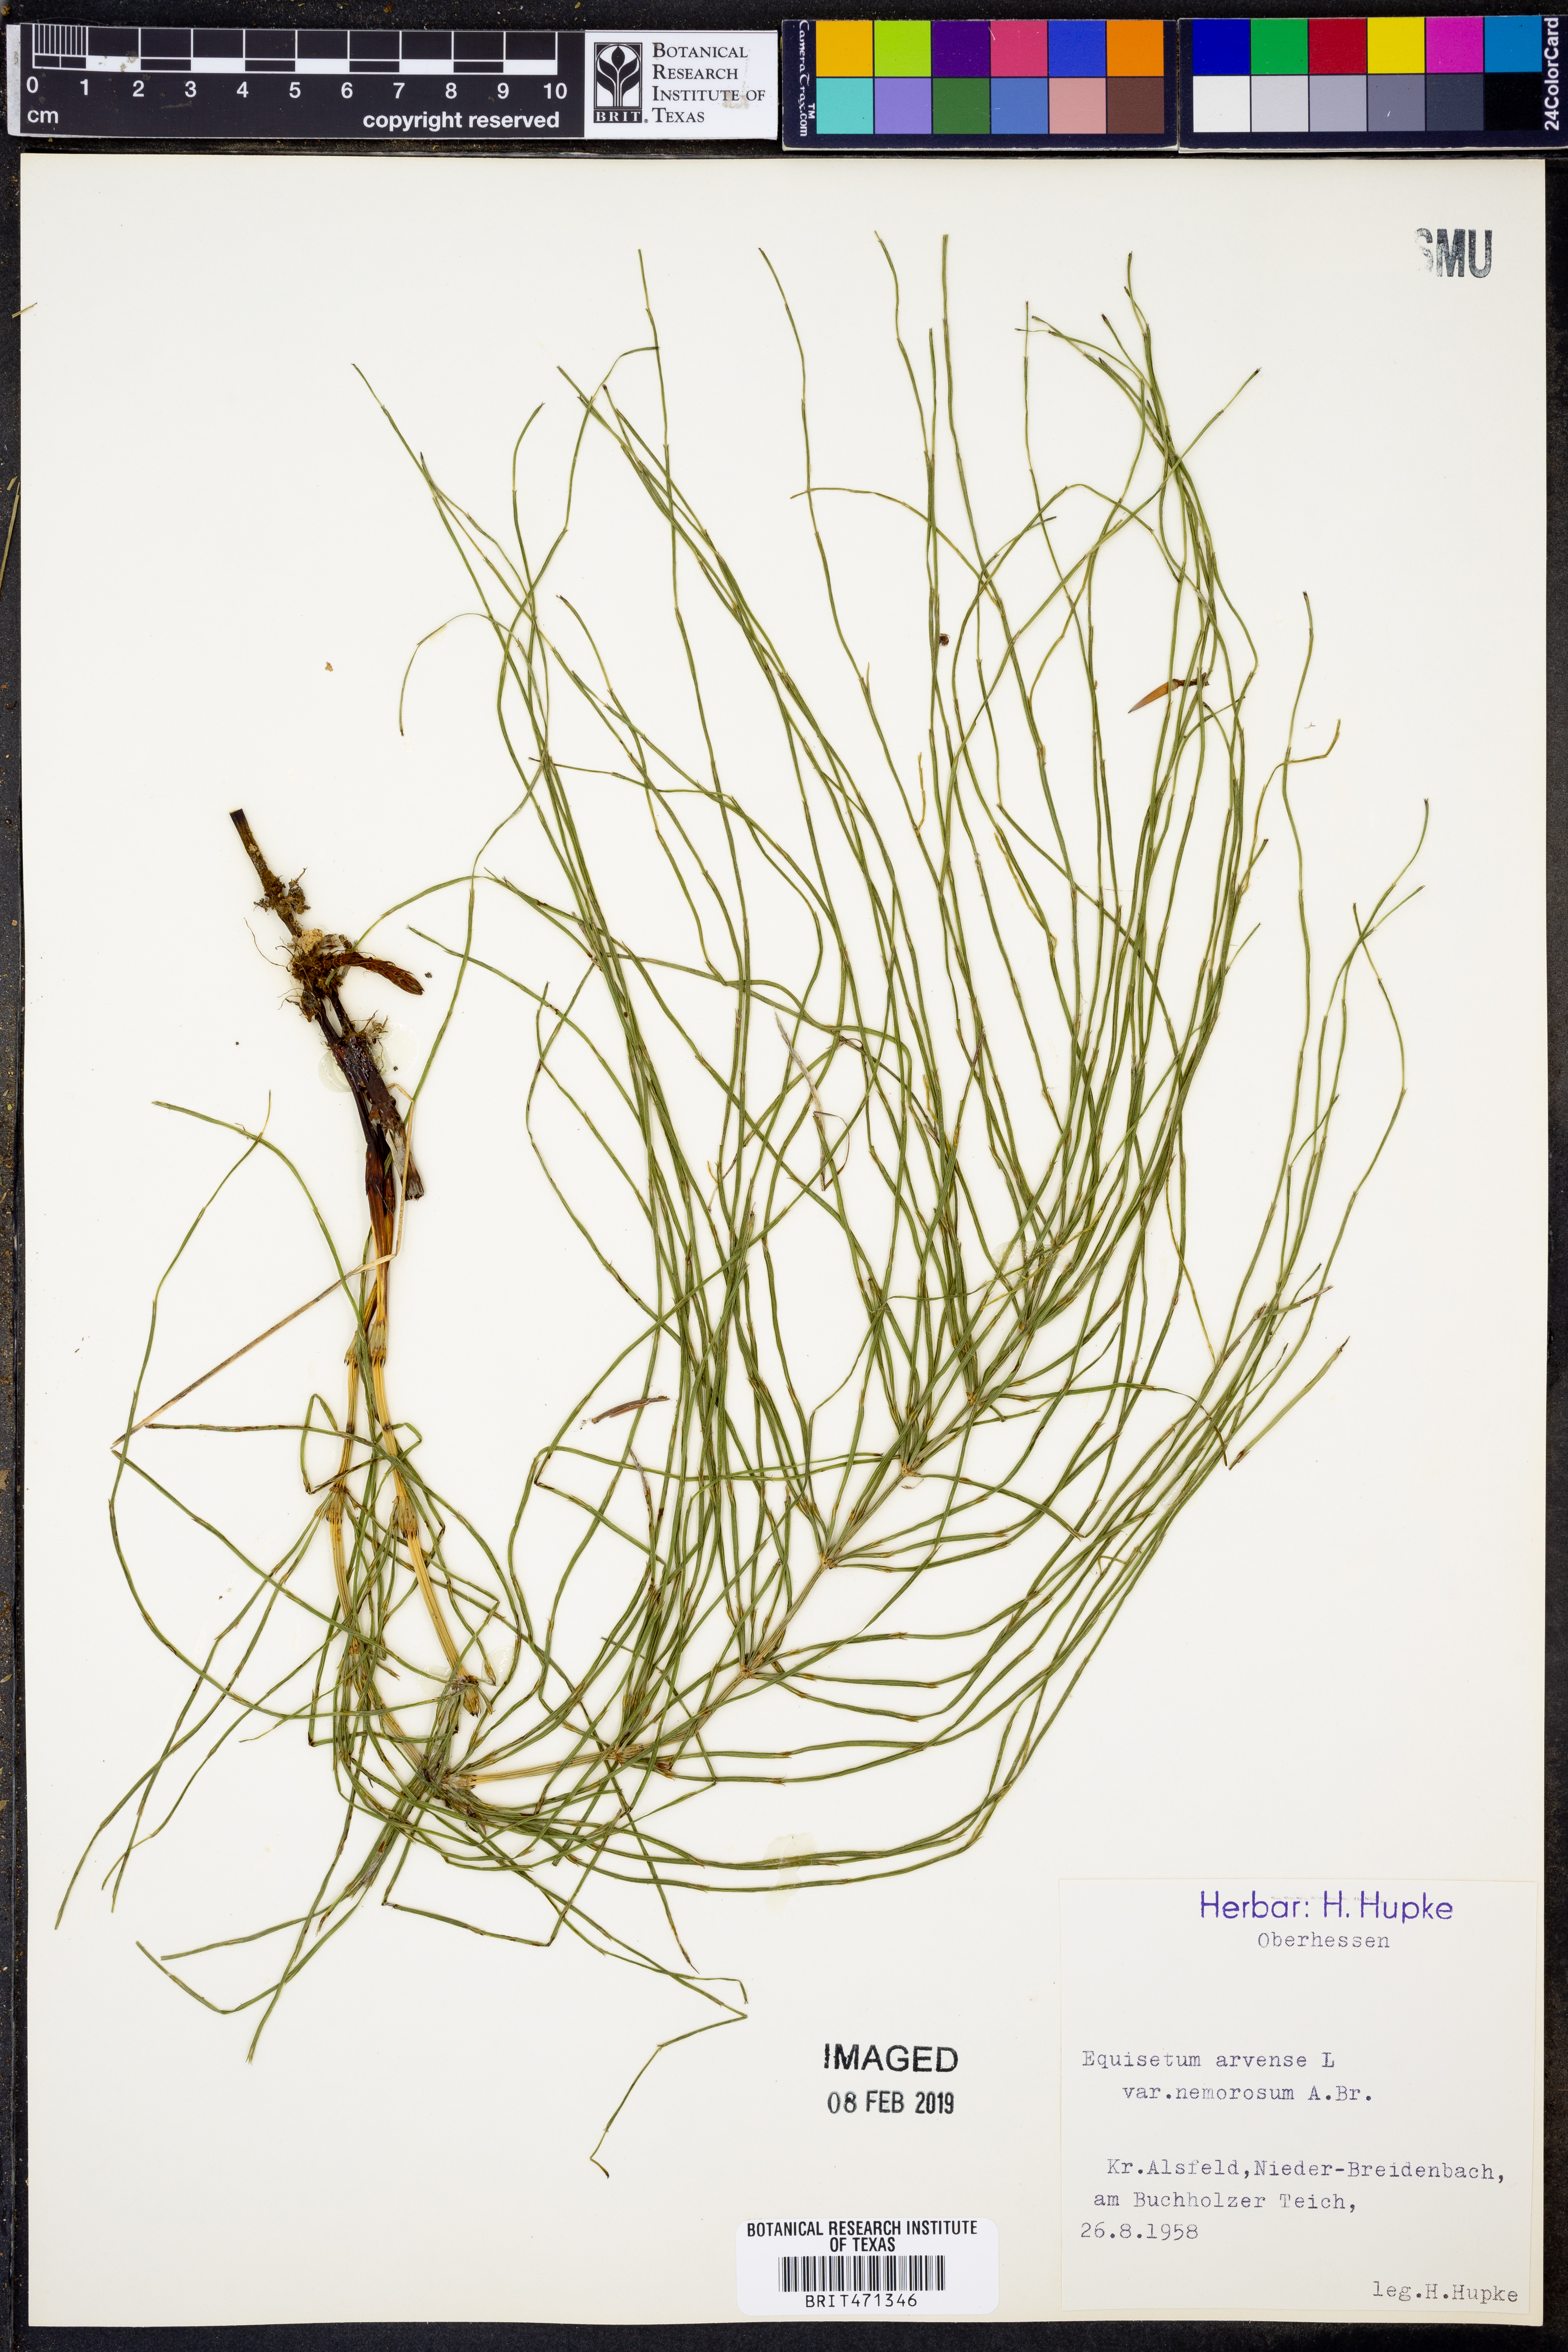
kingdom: Plantae
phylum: Tracheophyta
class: Polypodiopsida
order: Equisetales
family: Equisetaceae
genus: Equisetum
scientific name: Equisetum arvense
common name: Field horsetail
